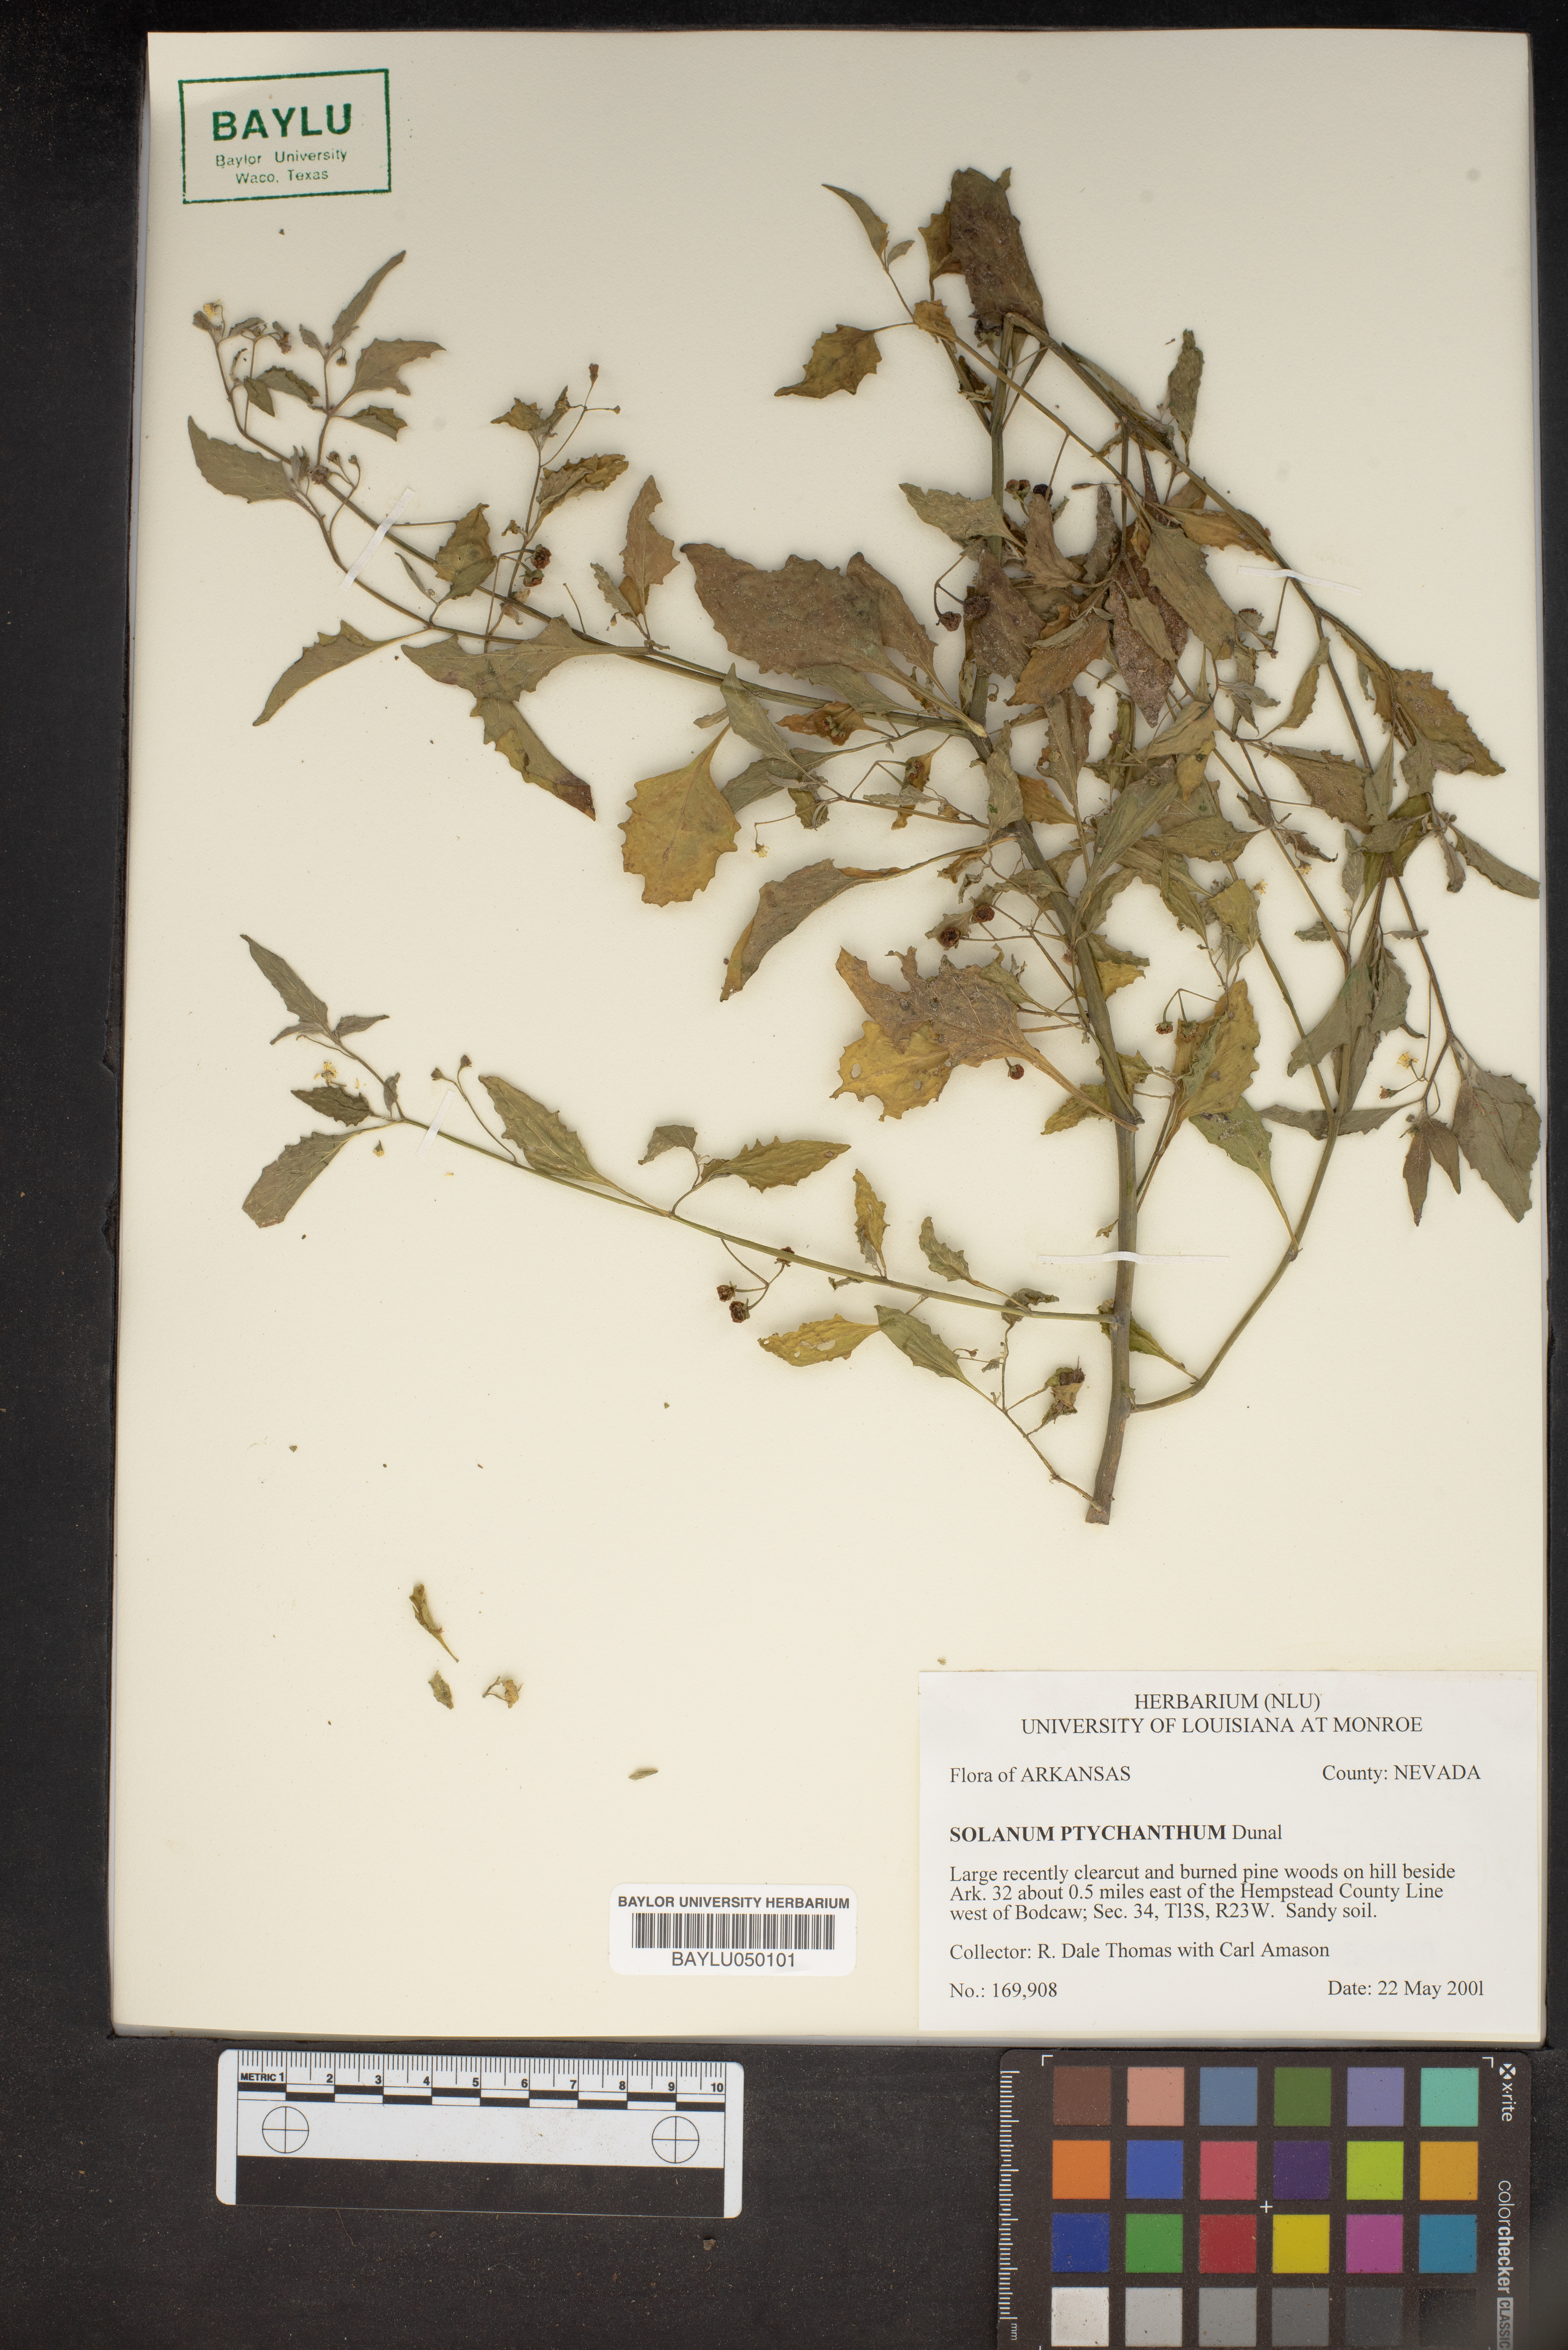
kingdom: Plantae
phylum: Tracheophyta
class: Magnoliopsida
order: Solanales
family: Solanaceae
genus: Solanum
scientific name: Solanum americanum
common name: American black nightshade
